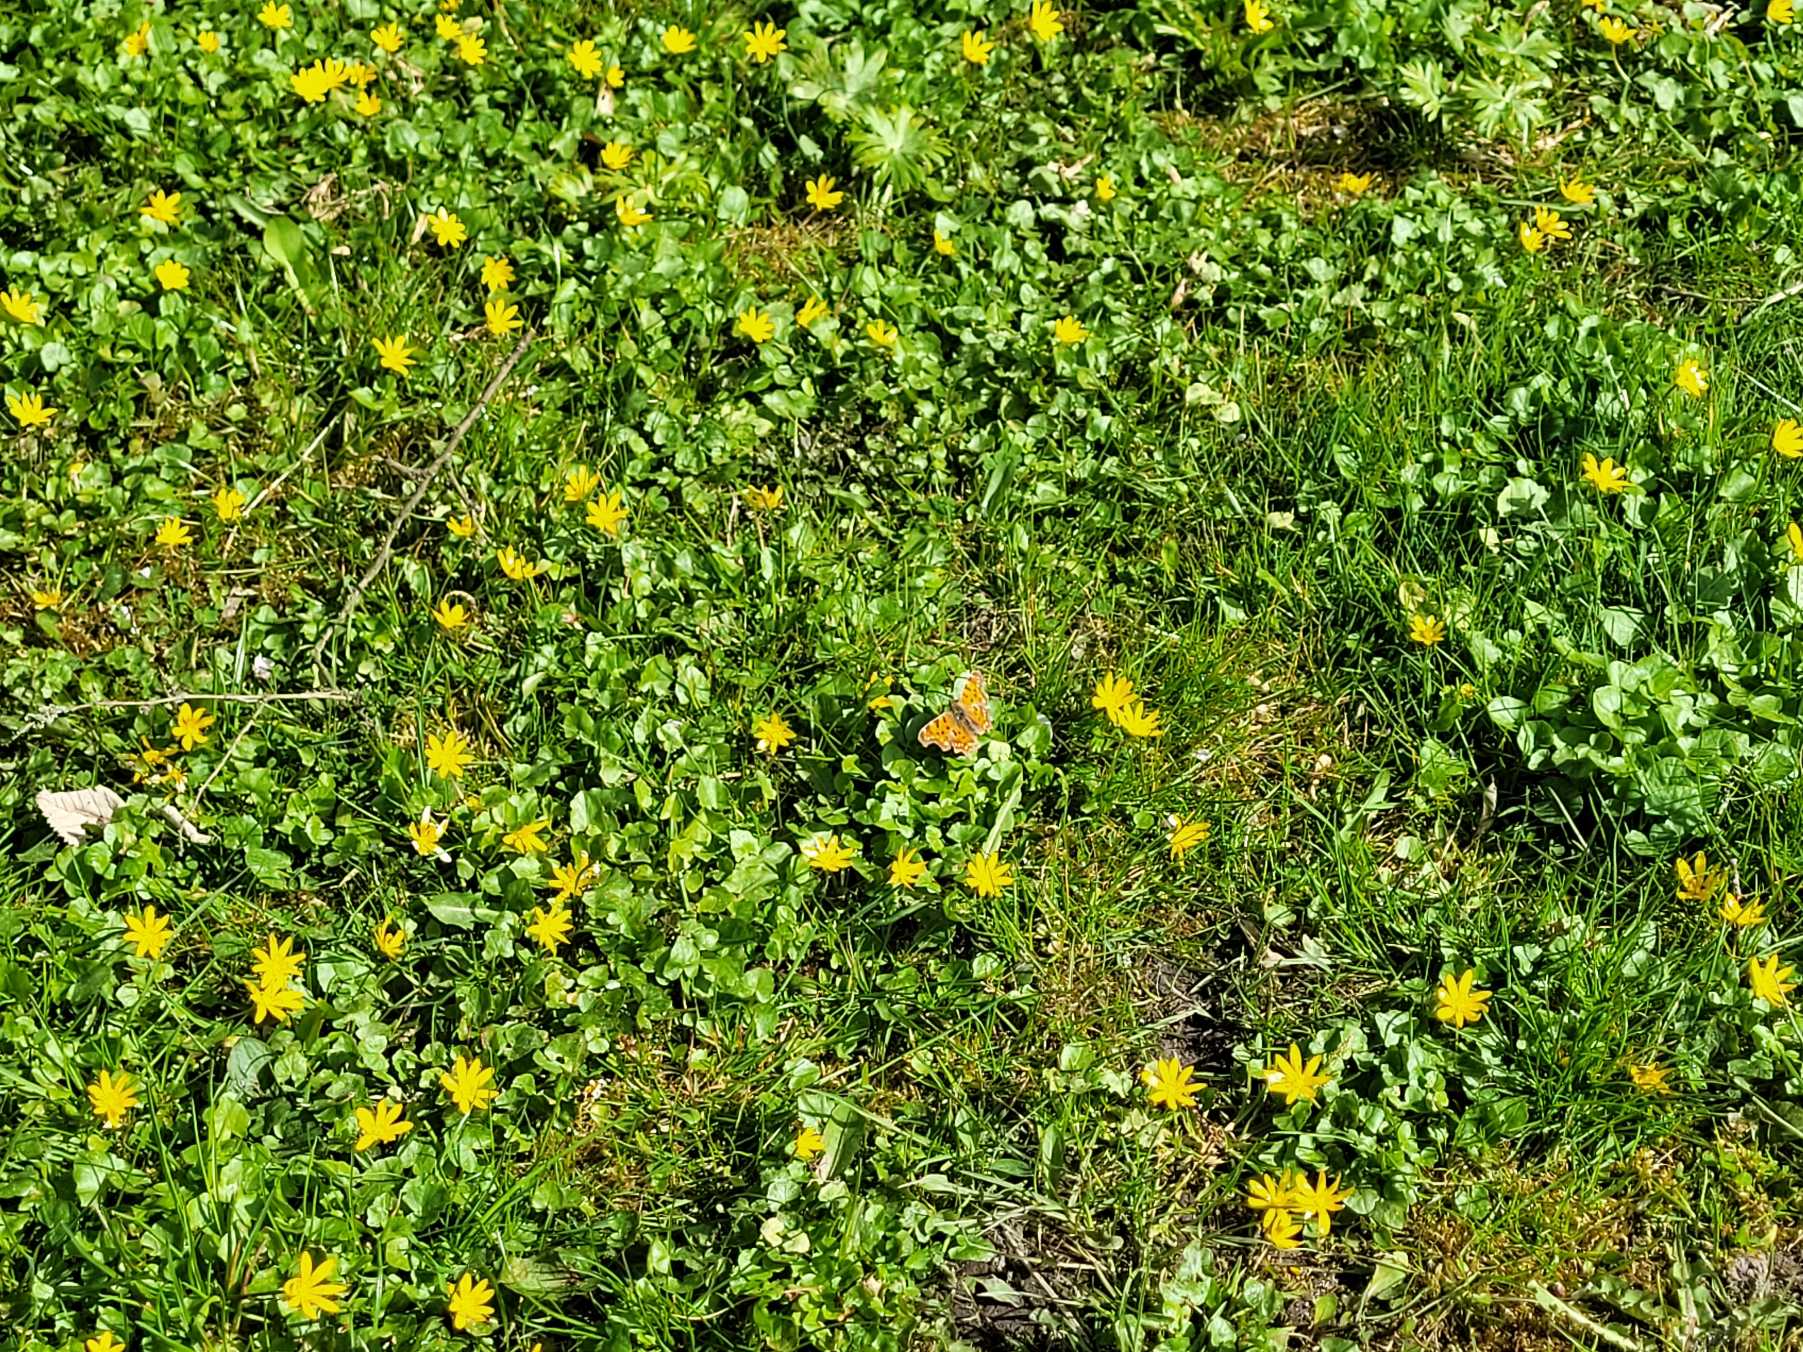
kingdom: Animalia
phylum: Arthropoda
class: Insecta
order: Lepidoptera
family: Nymphalidae
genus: Polygonia
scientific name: Polygonia c-album
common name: Det hvide C
